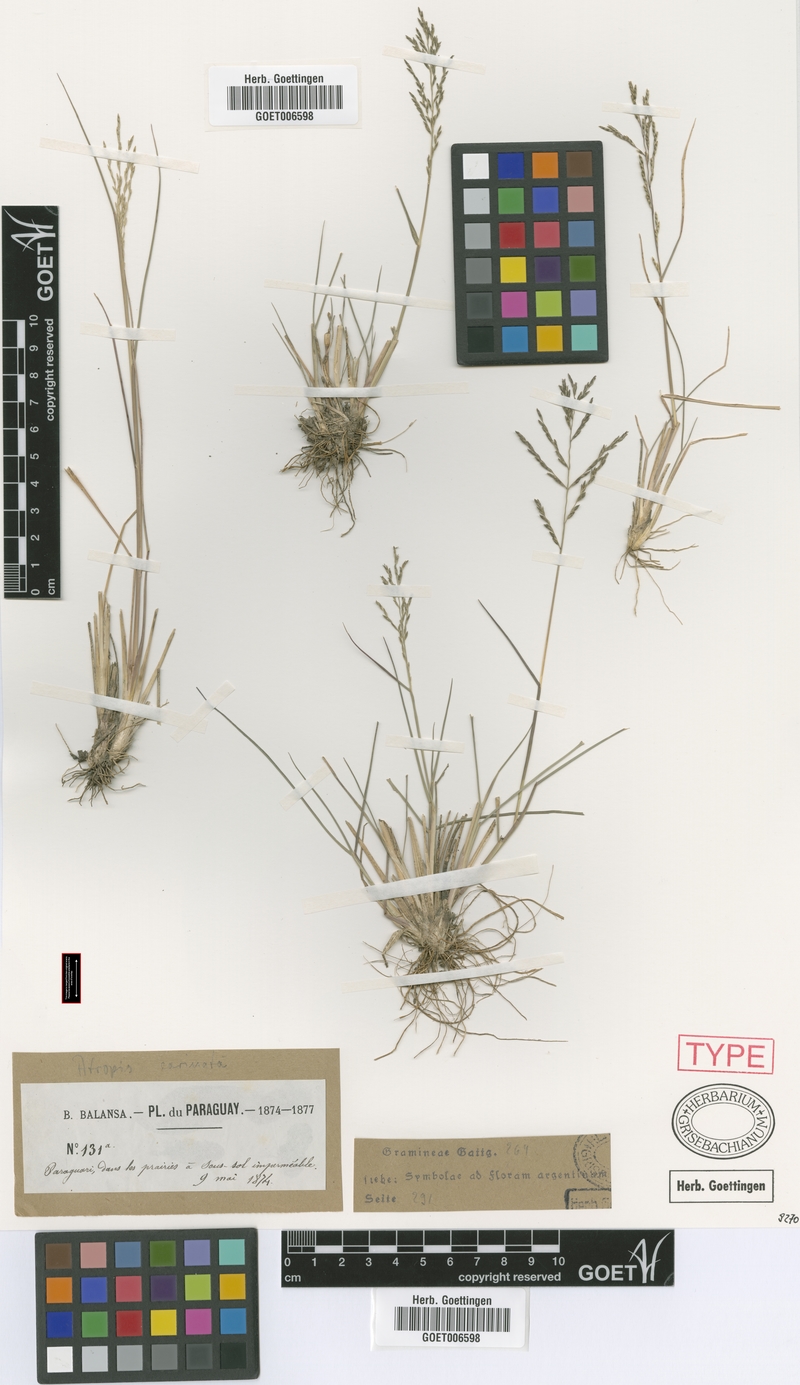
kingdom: Plantae
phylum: Tracheophyta
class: Liliopsida
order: Poales
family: Poaceae
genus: Diplachne
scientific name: Diplachne fusca
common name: Brown beetle grass
